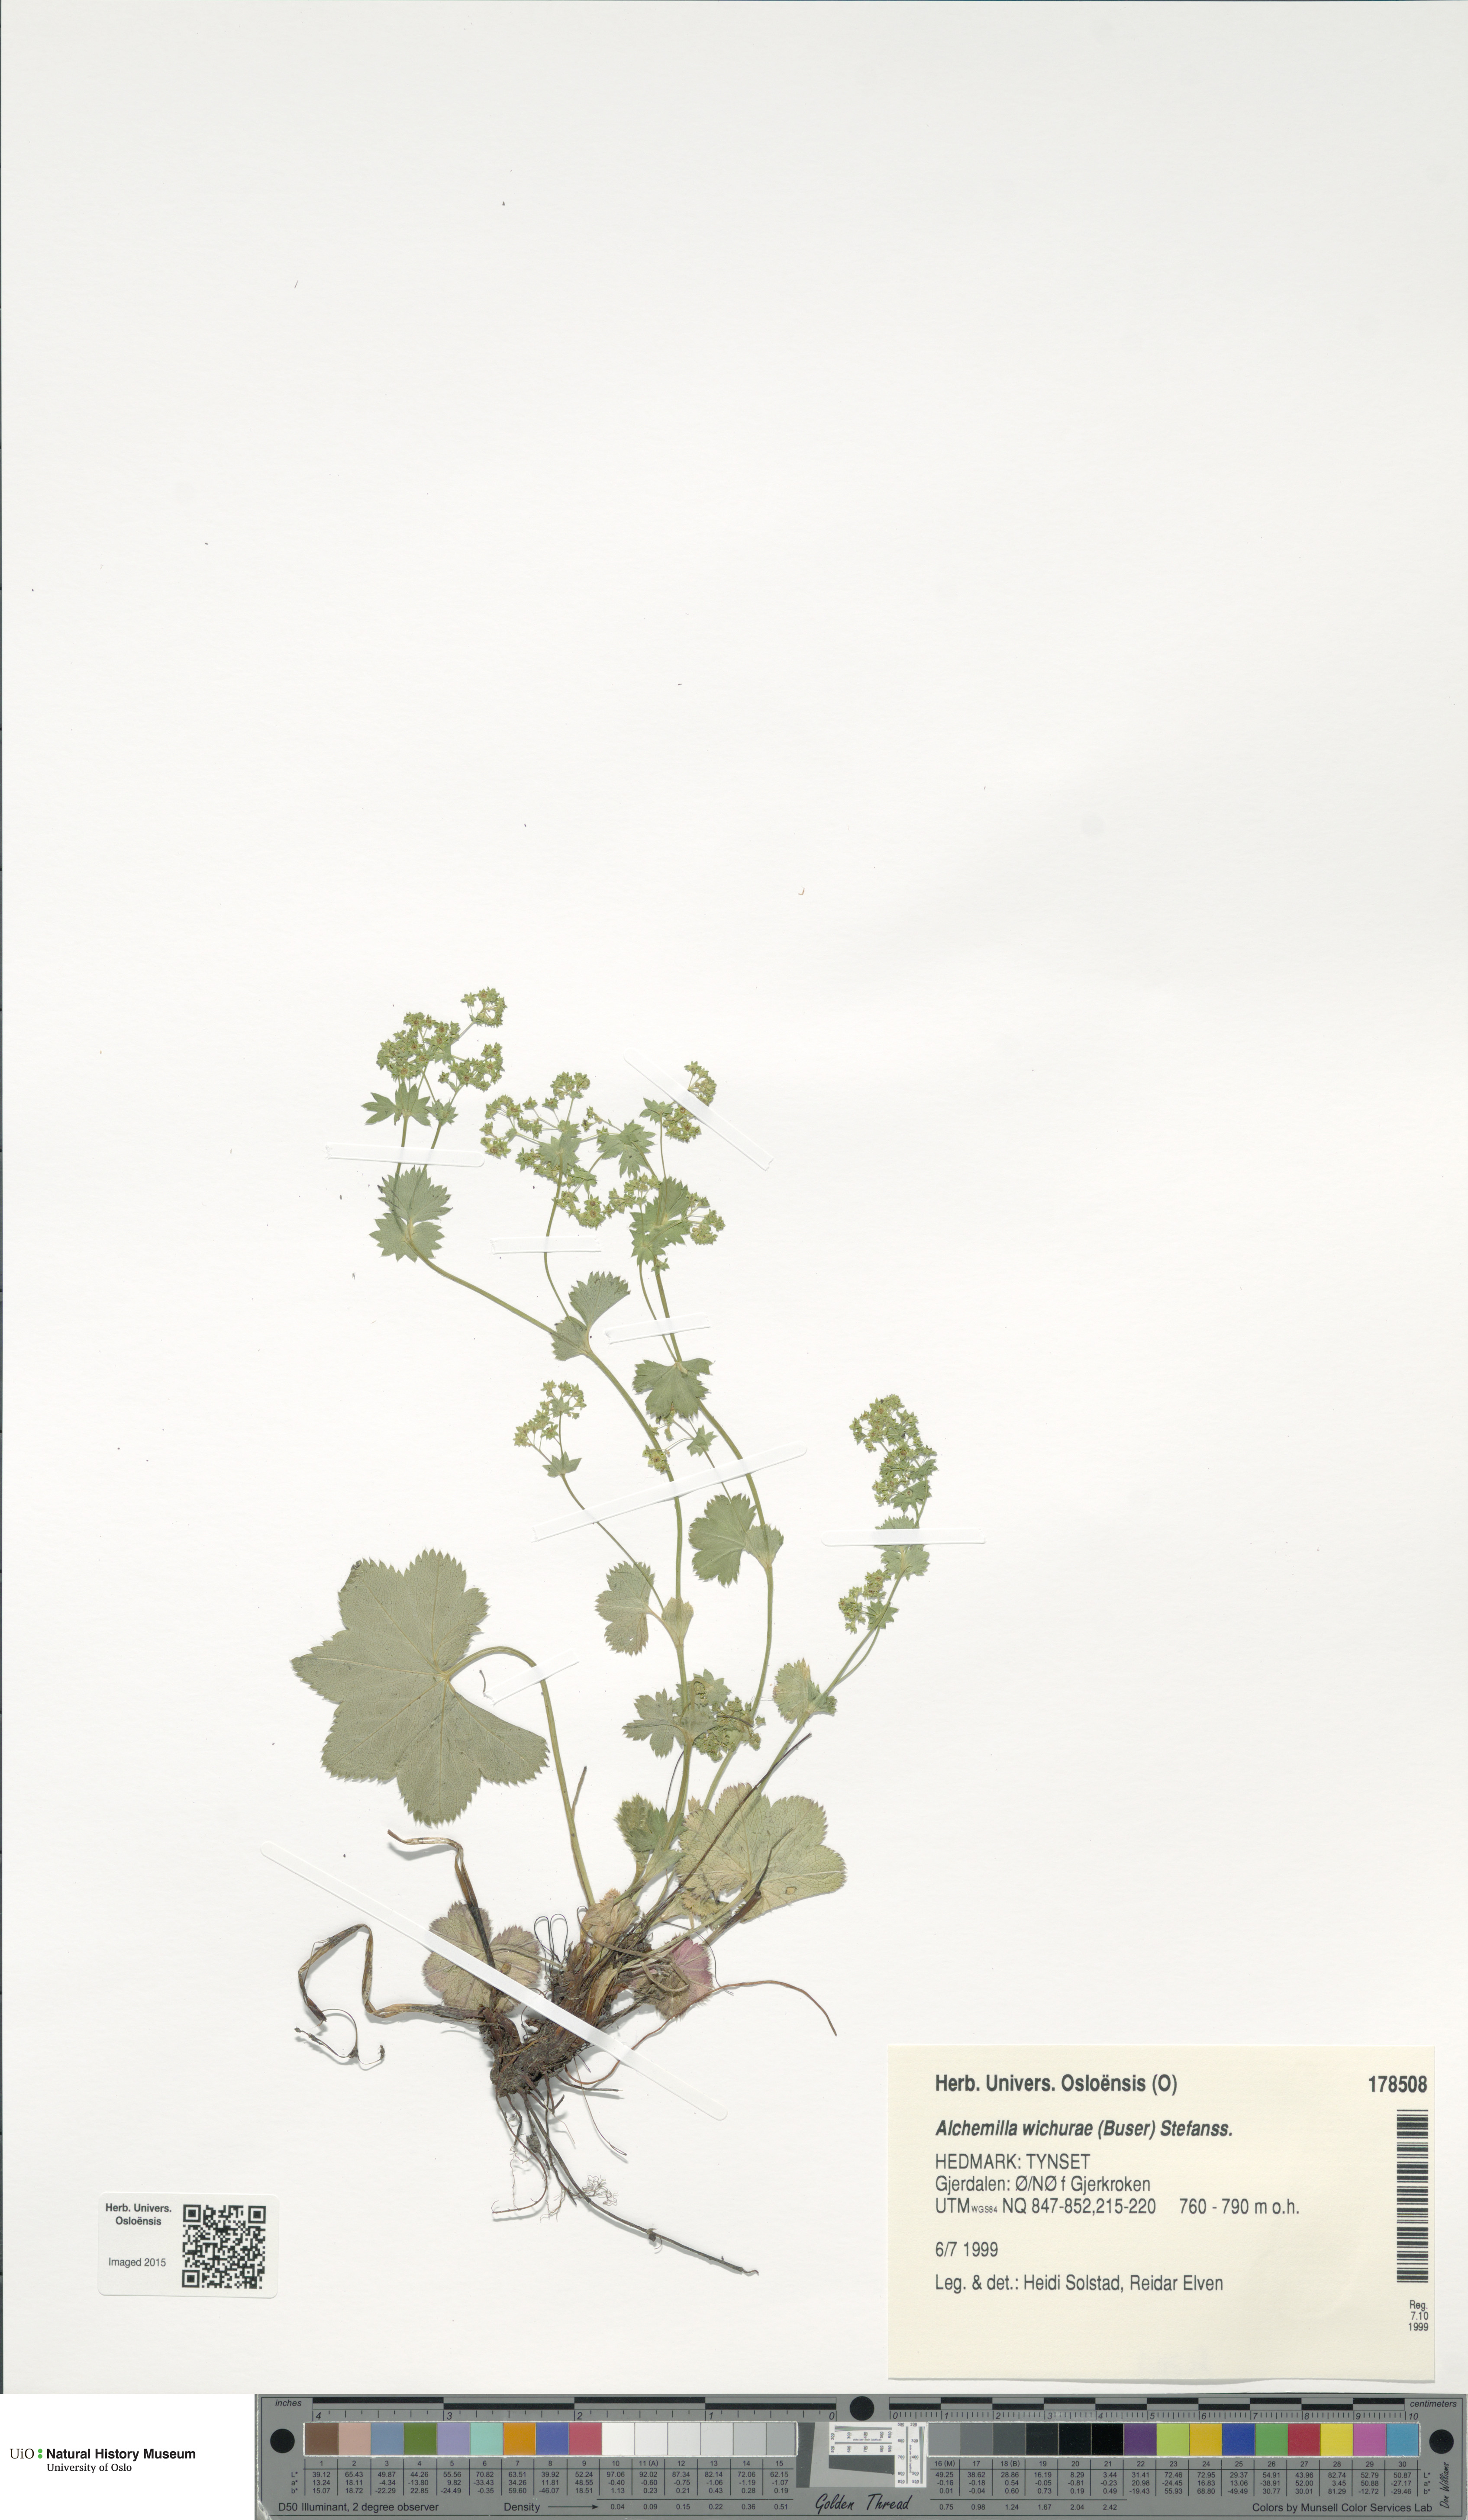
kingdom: Plantae
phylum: Tracheophyta
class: Magnoliopsida
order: Rosales
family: Rosaceae
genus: Alchemilla
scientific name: Alchemilla wichurae
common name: Rock lady's mantle
